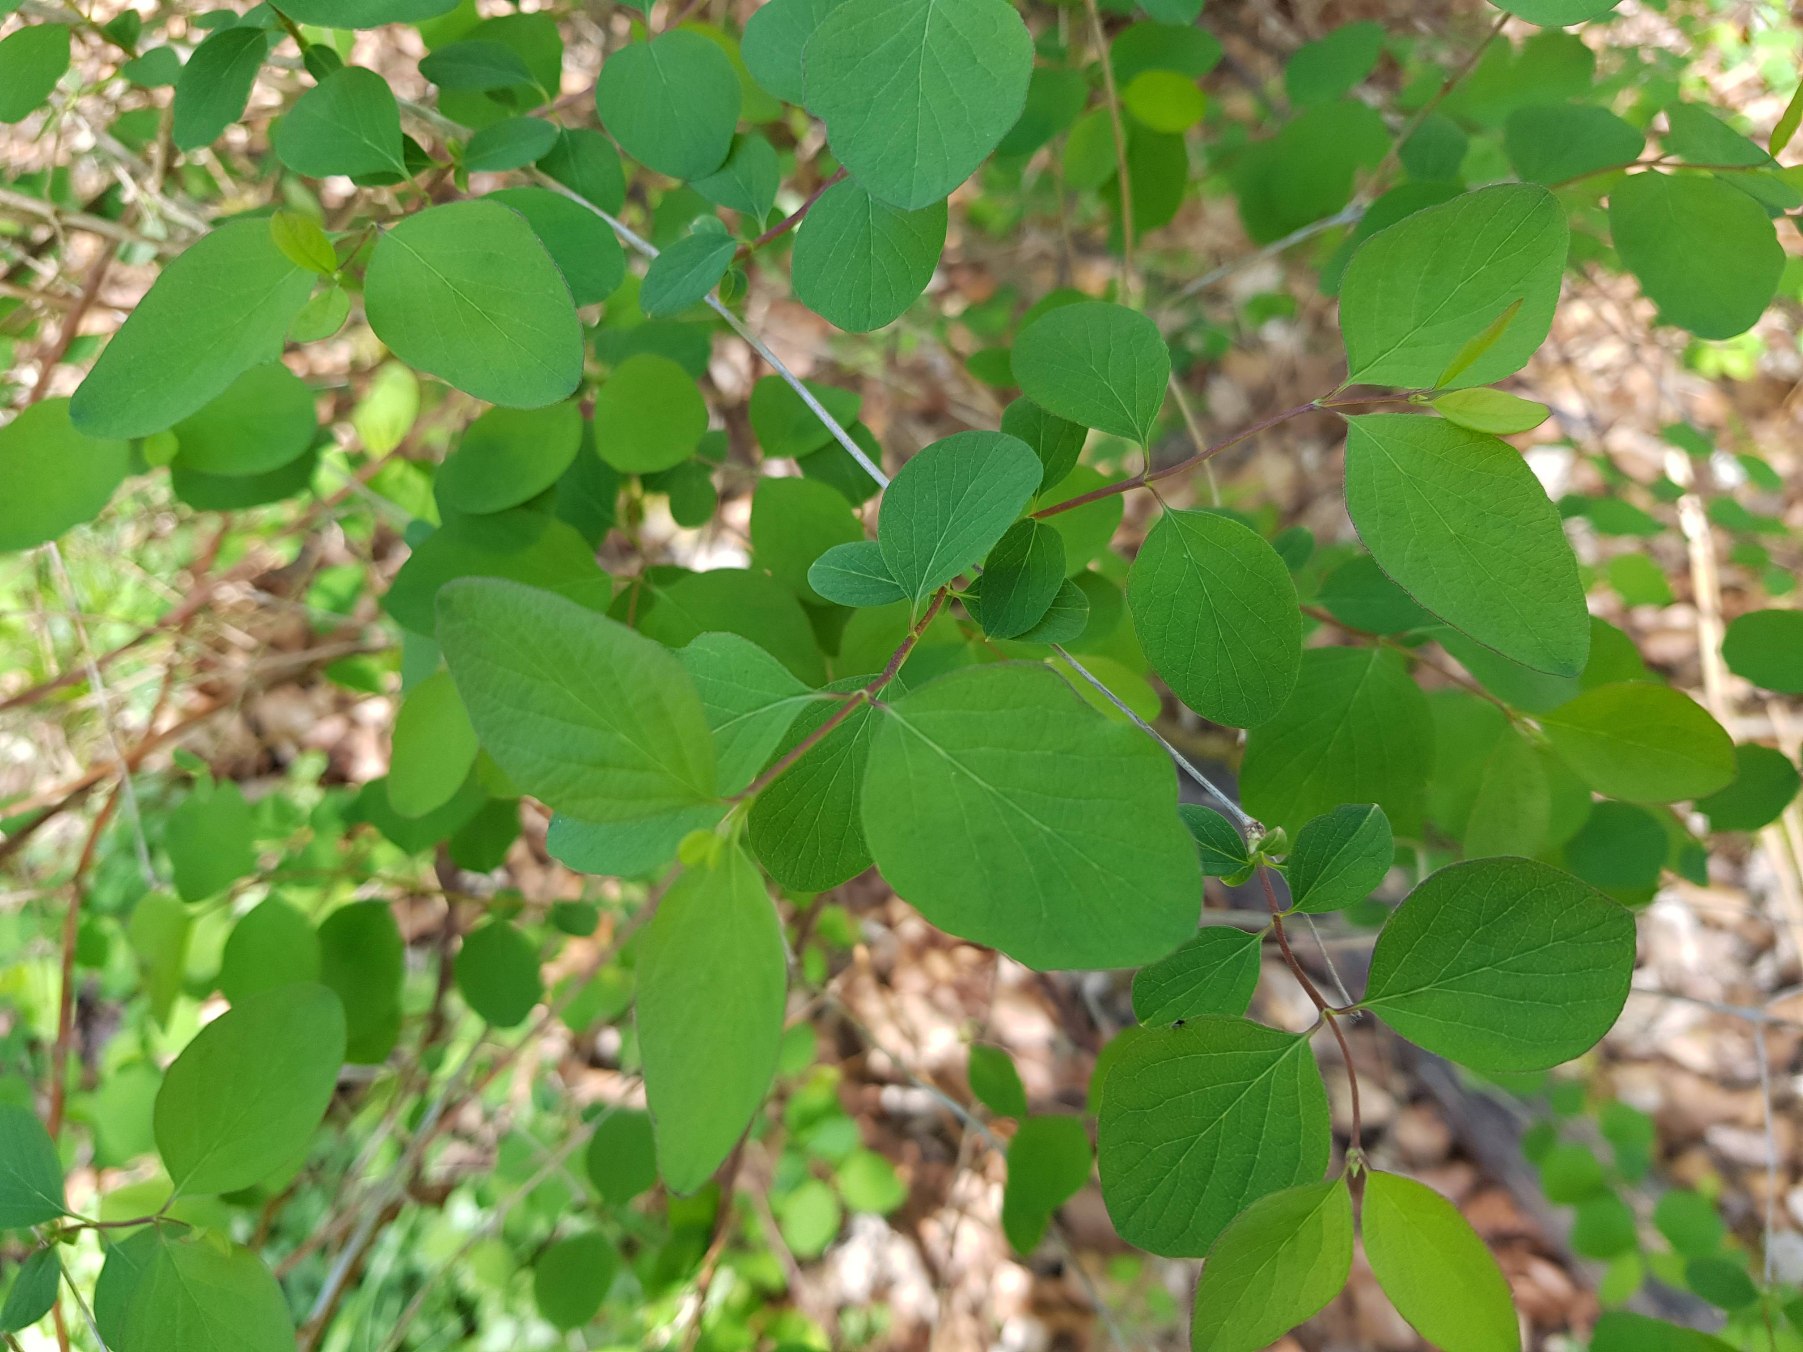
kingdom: Plantae
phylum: Tracheophyta
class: Magnoliopsida
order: Dipsacales
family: Caprifoliaceae
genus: Symphoricarpos
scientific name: Symphoricarpos albus
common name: Almindelig snebær
